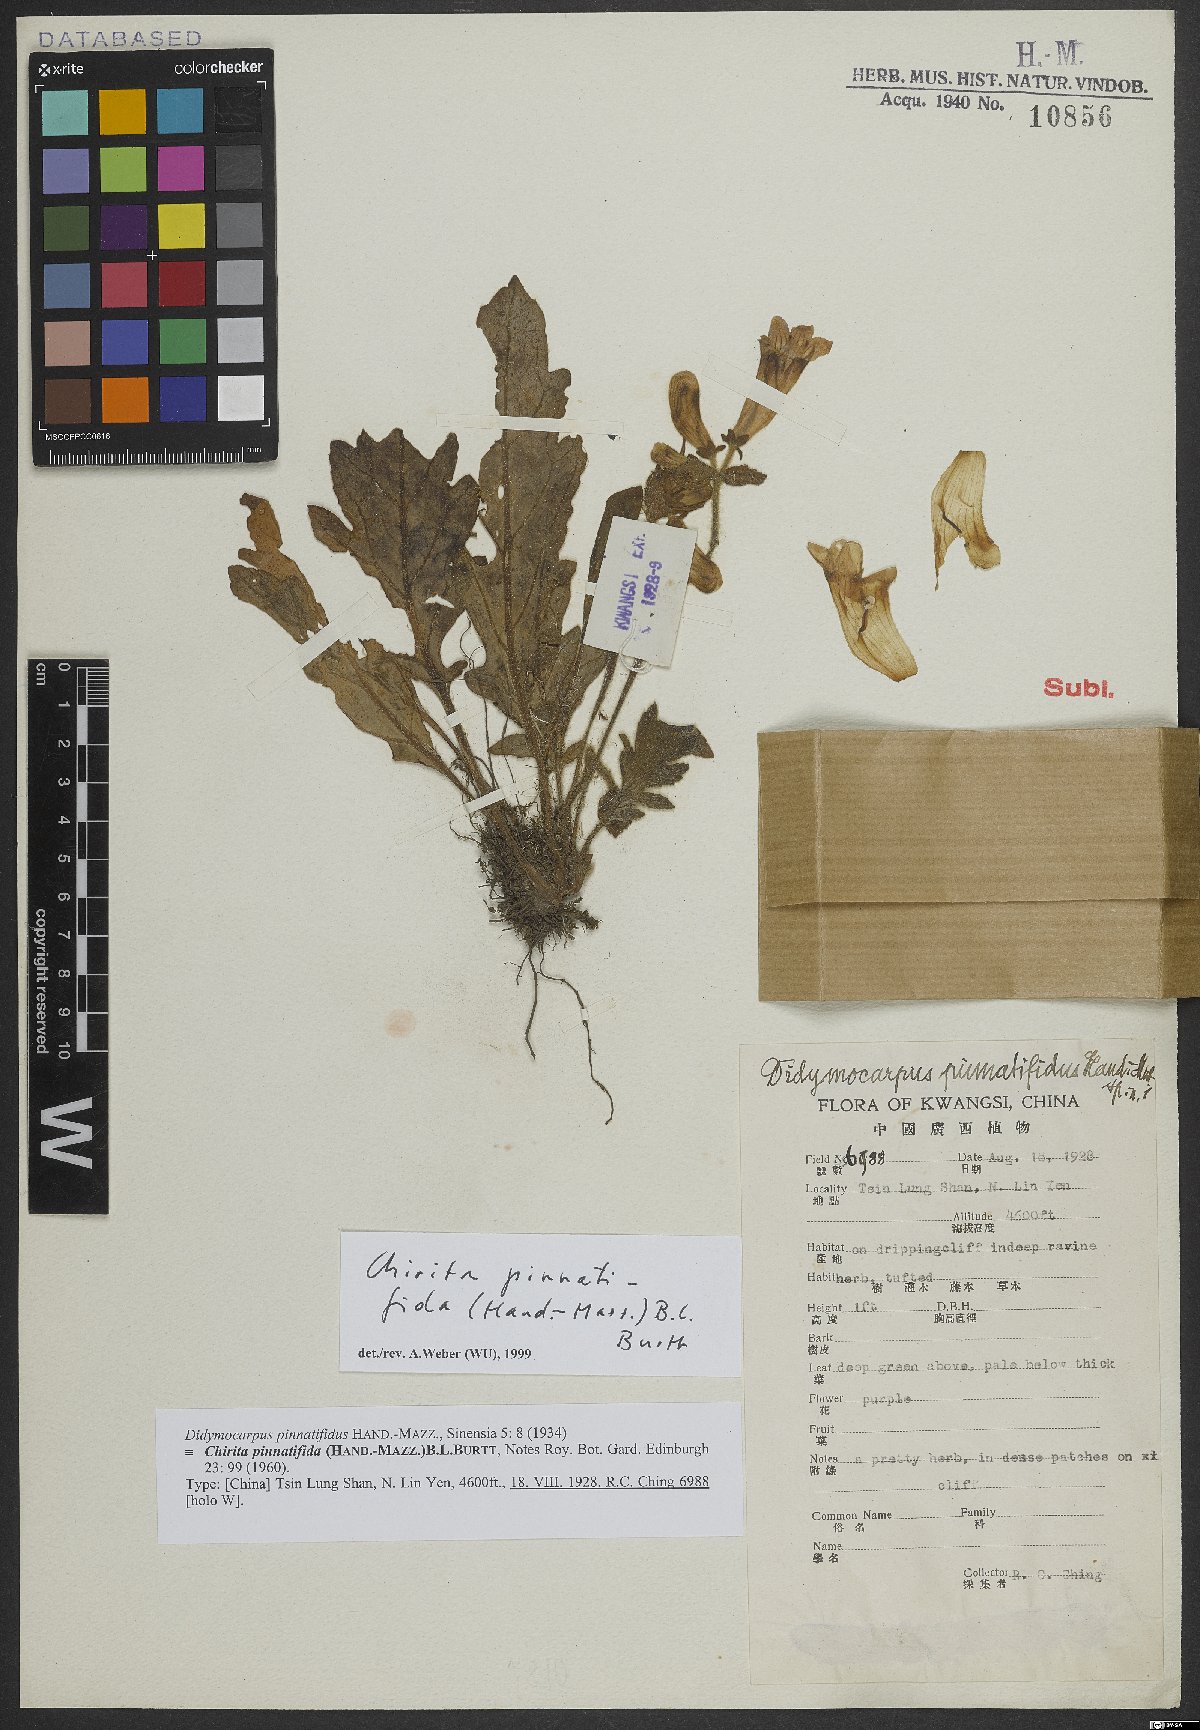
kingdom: Plantae
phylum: Tracheophyta
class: Magnoliopsida
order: Lamiales
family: Gesneriaceae
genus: Primulina
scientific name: Primulina pinnatifida
